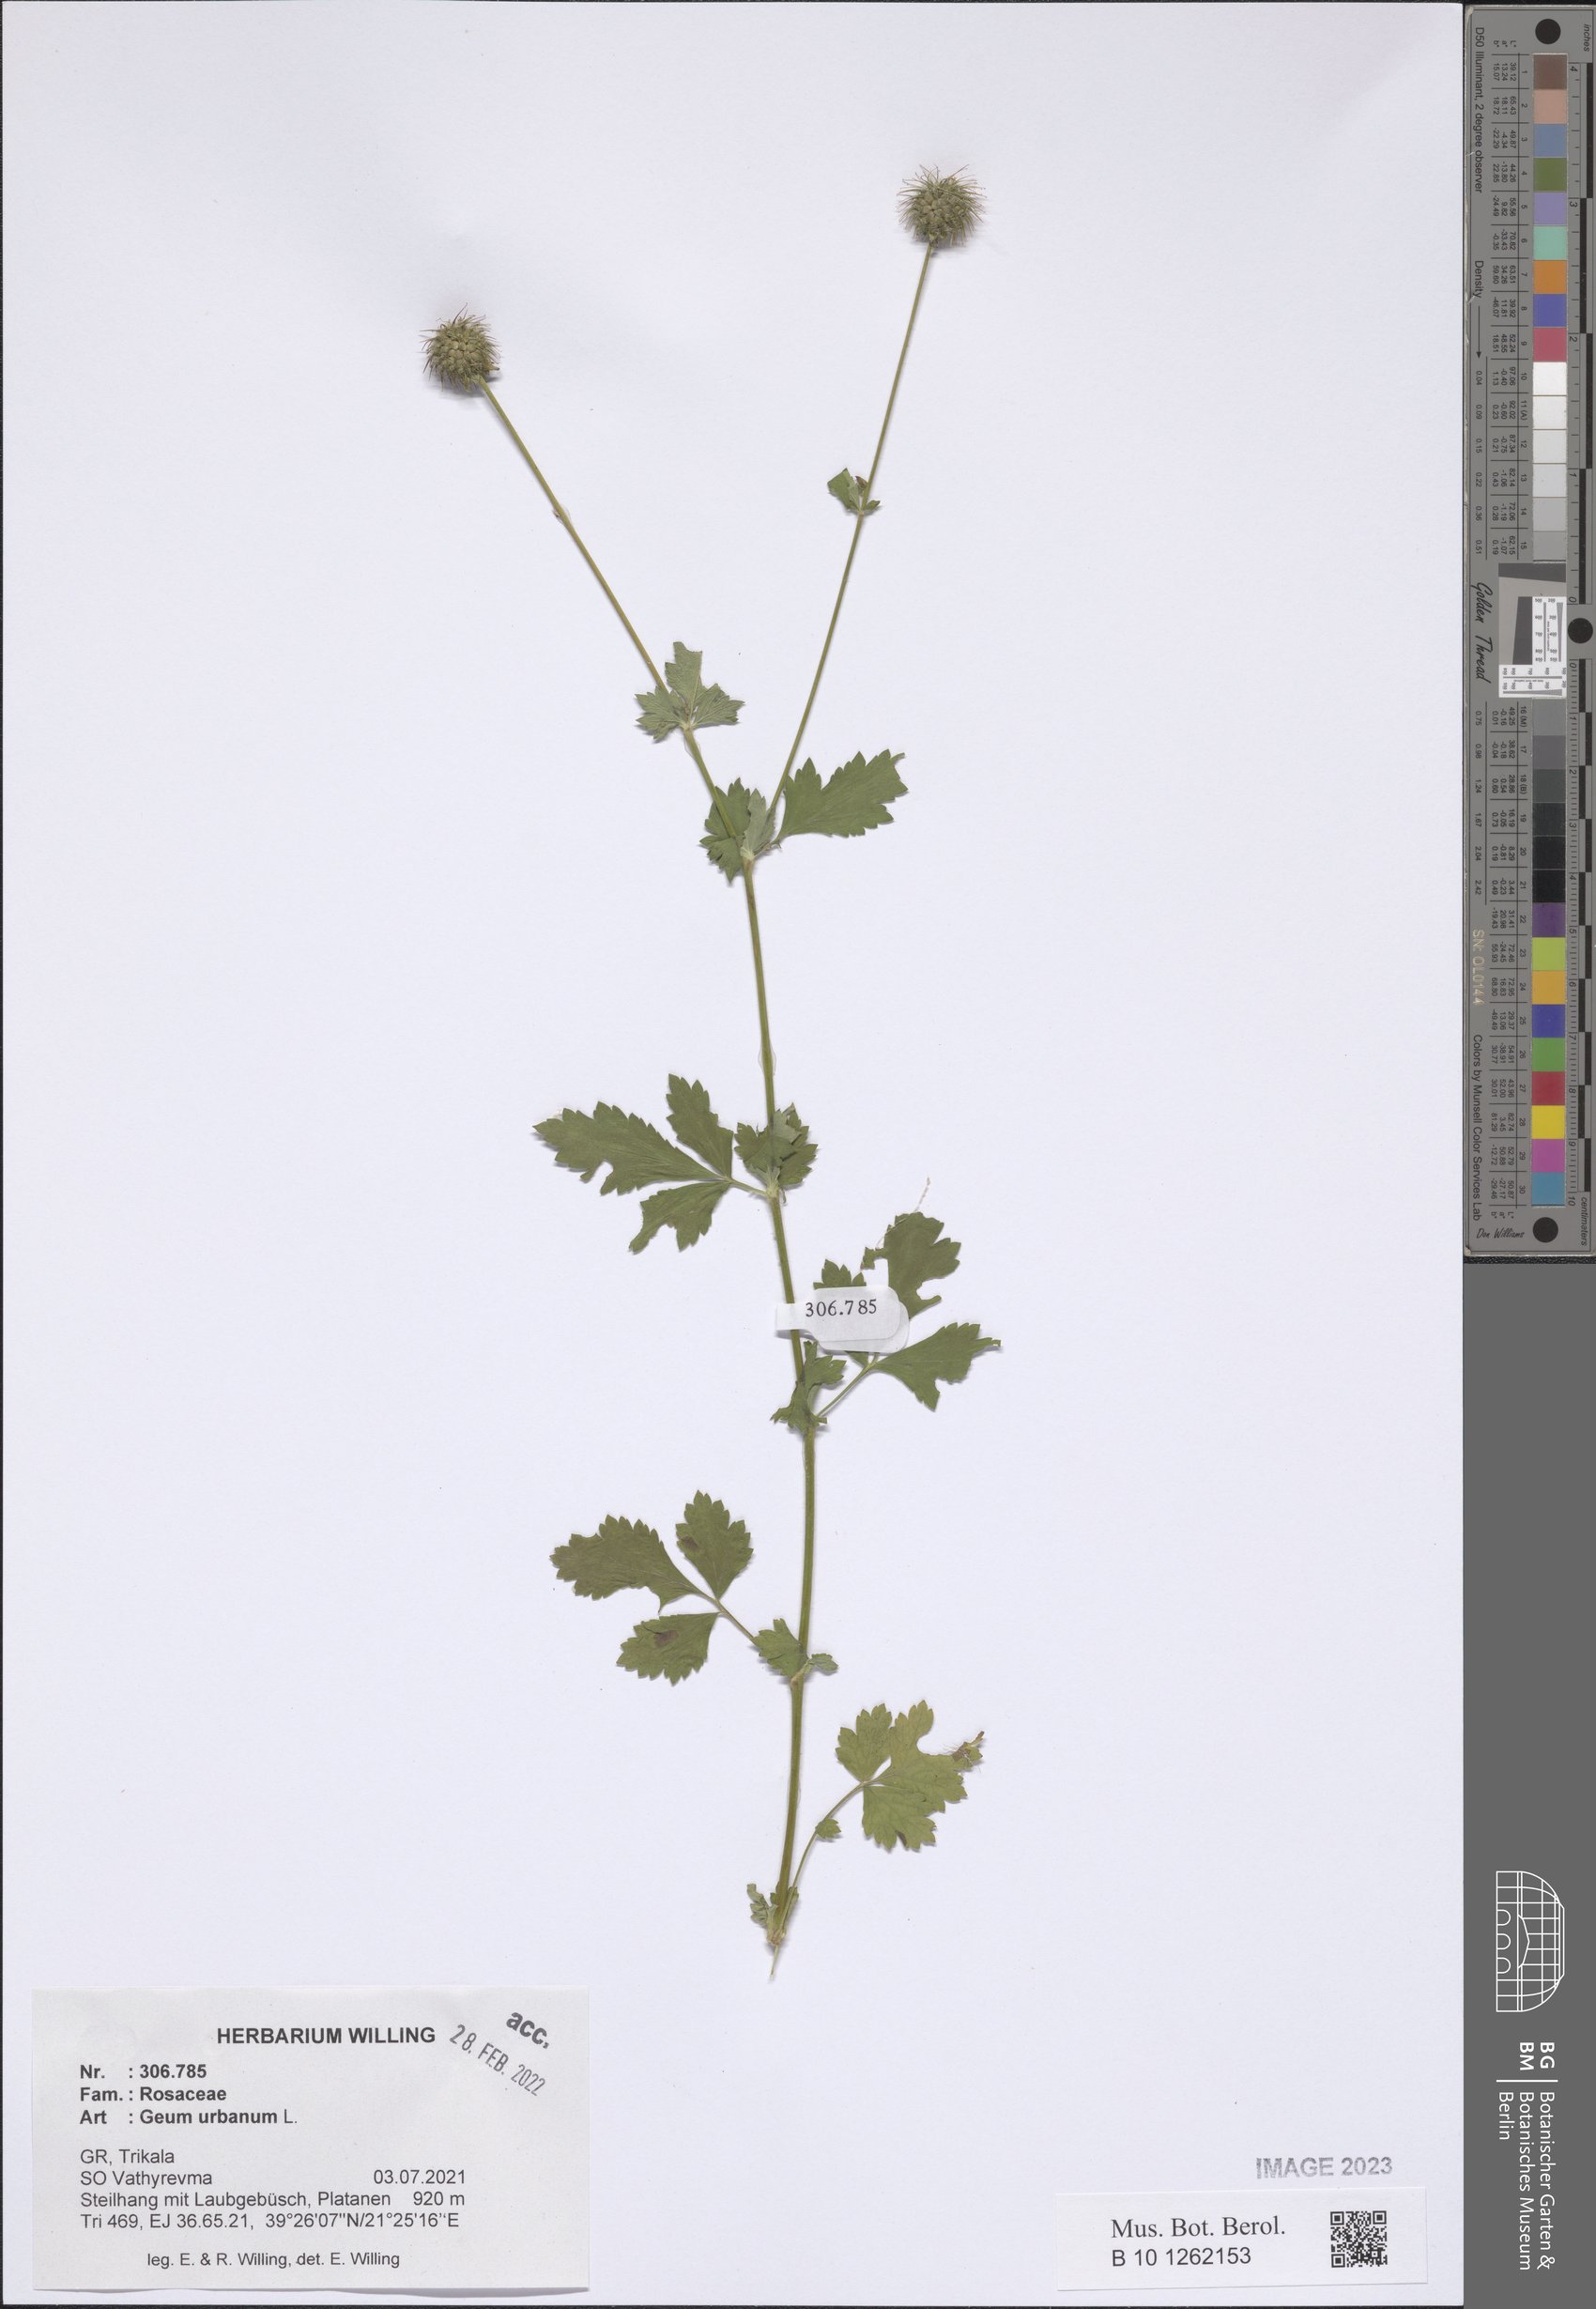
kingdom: Plantae
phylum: Tracheophyta
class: Magnoliopsida
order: Rosales
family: Rosaceae
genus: Geum
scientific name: Geum urbanum
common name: Wood avens
